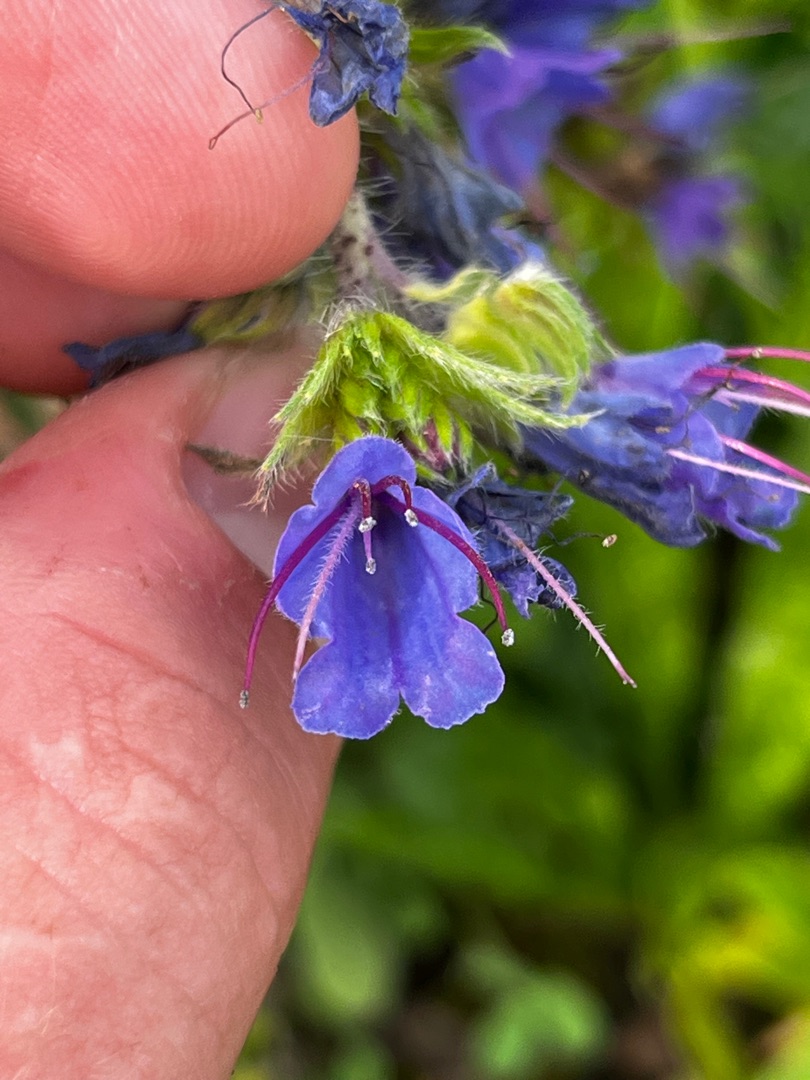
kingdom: Plantae
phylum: Tracheophyta
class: Magnoliopsida
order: Boraginales
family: Boraginaceae
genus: Echium
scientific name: Echium vulgare
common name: Slangehoved
